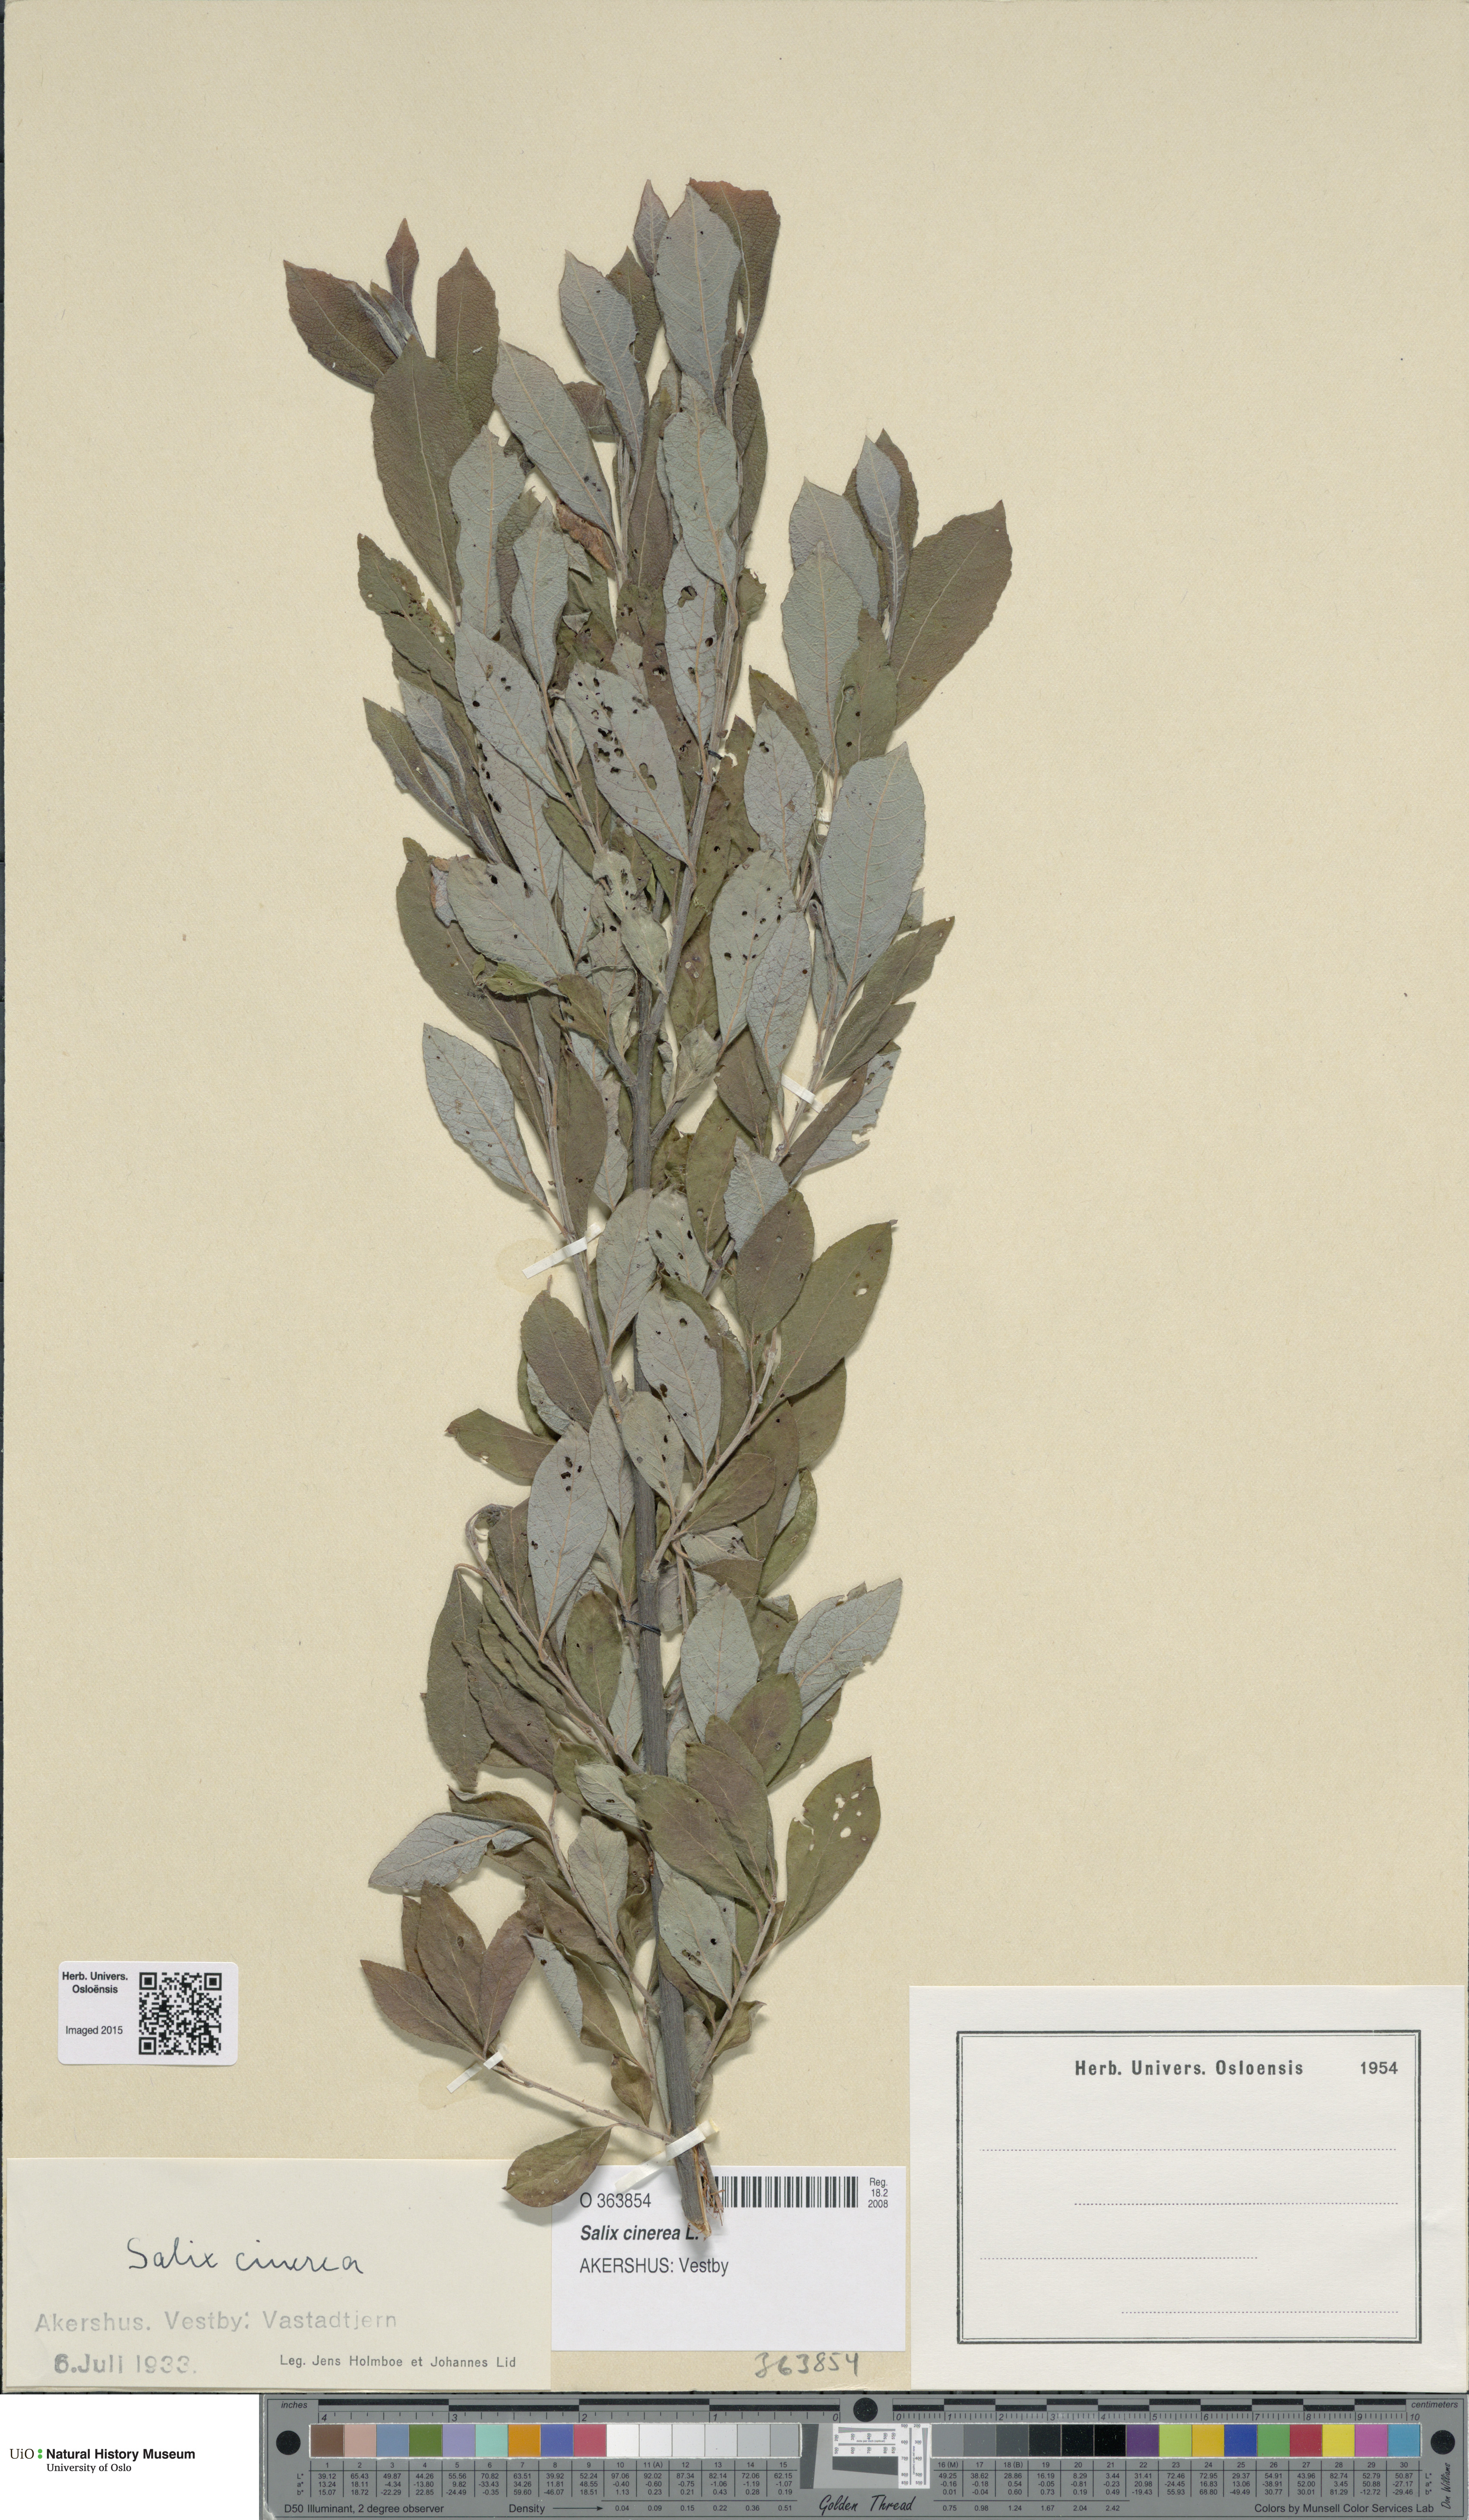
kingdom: Plantae
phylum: Tracheophyta
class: Magnoliopsida
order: Malpighiales
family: Salicaceae
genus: Salix
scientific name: Salix cinerea
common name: Common sallow
